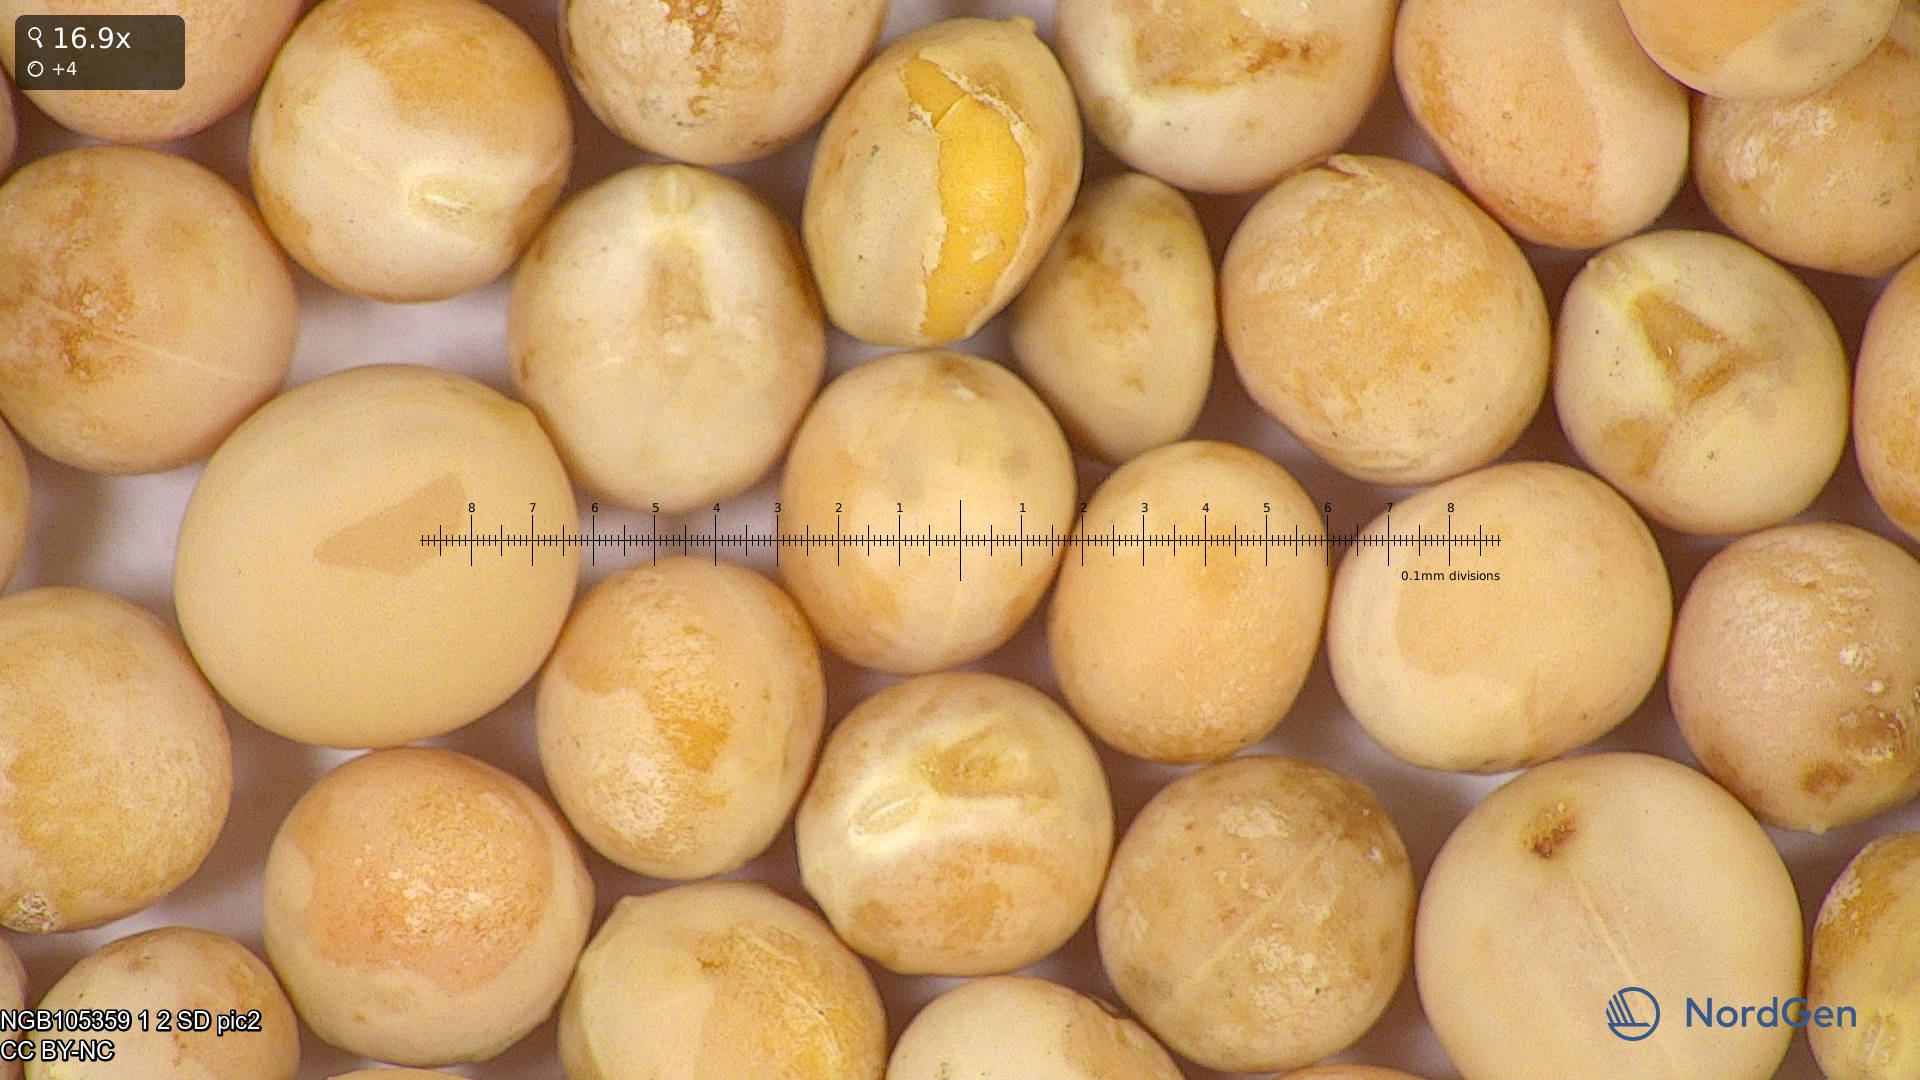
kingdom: Plantae
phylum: Tracheophyta
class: Magnoliopsida
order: Fabales
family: Fabaceae
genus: Lathyrus
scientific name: Lathyrus oleraceus
